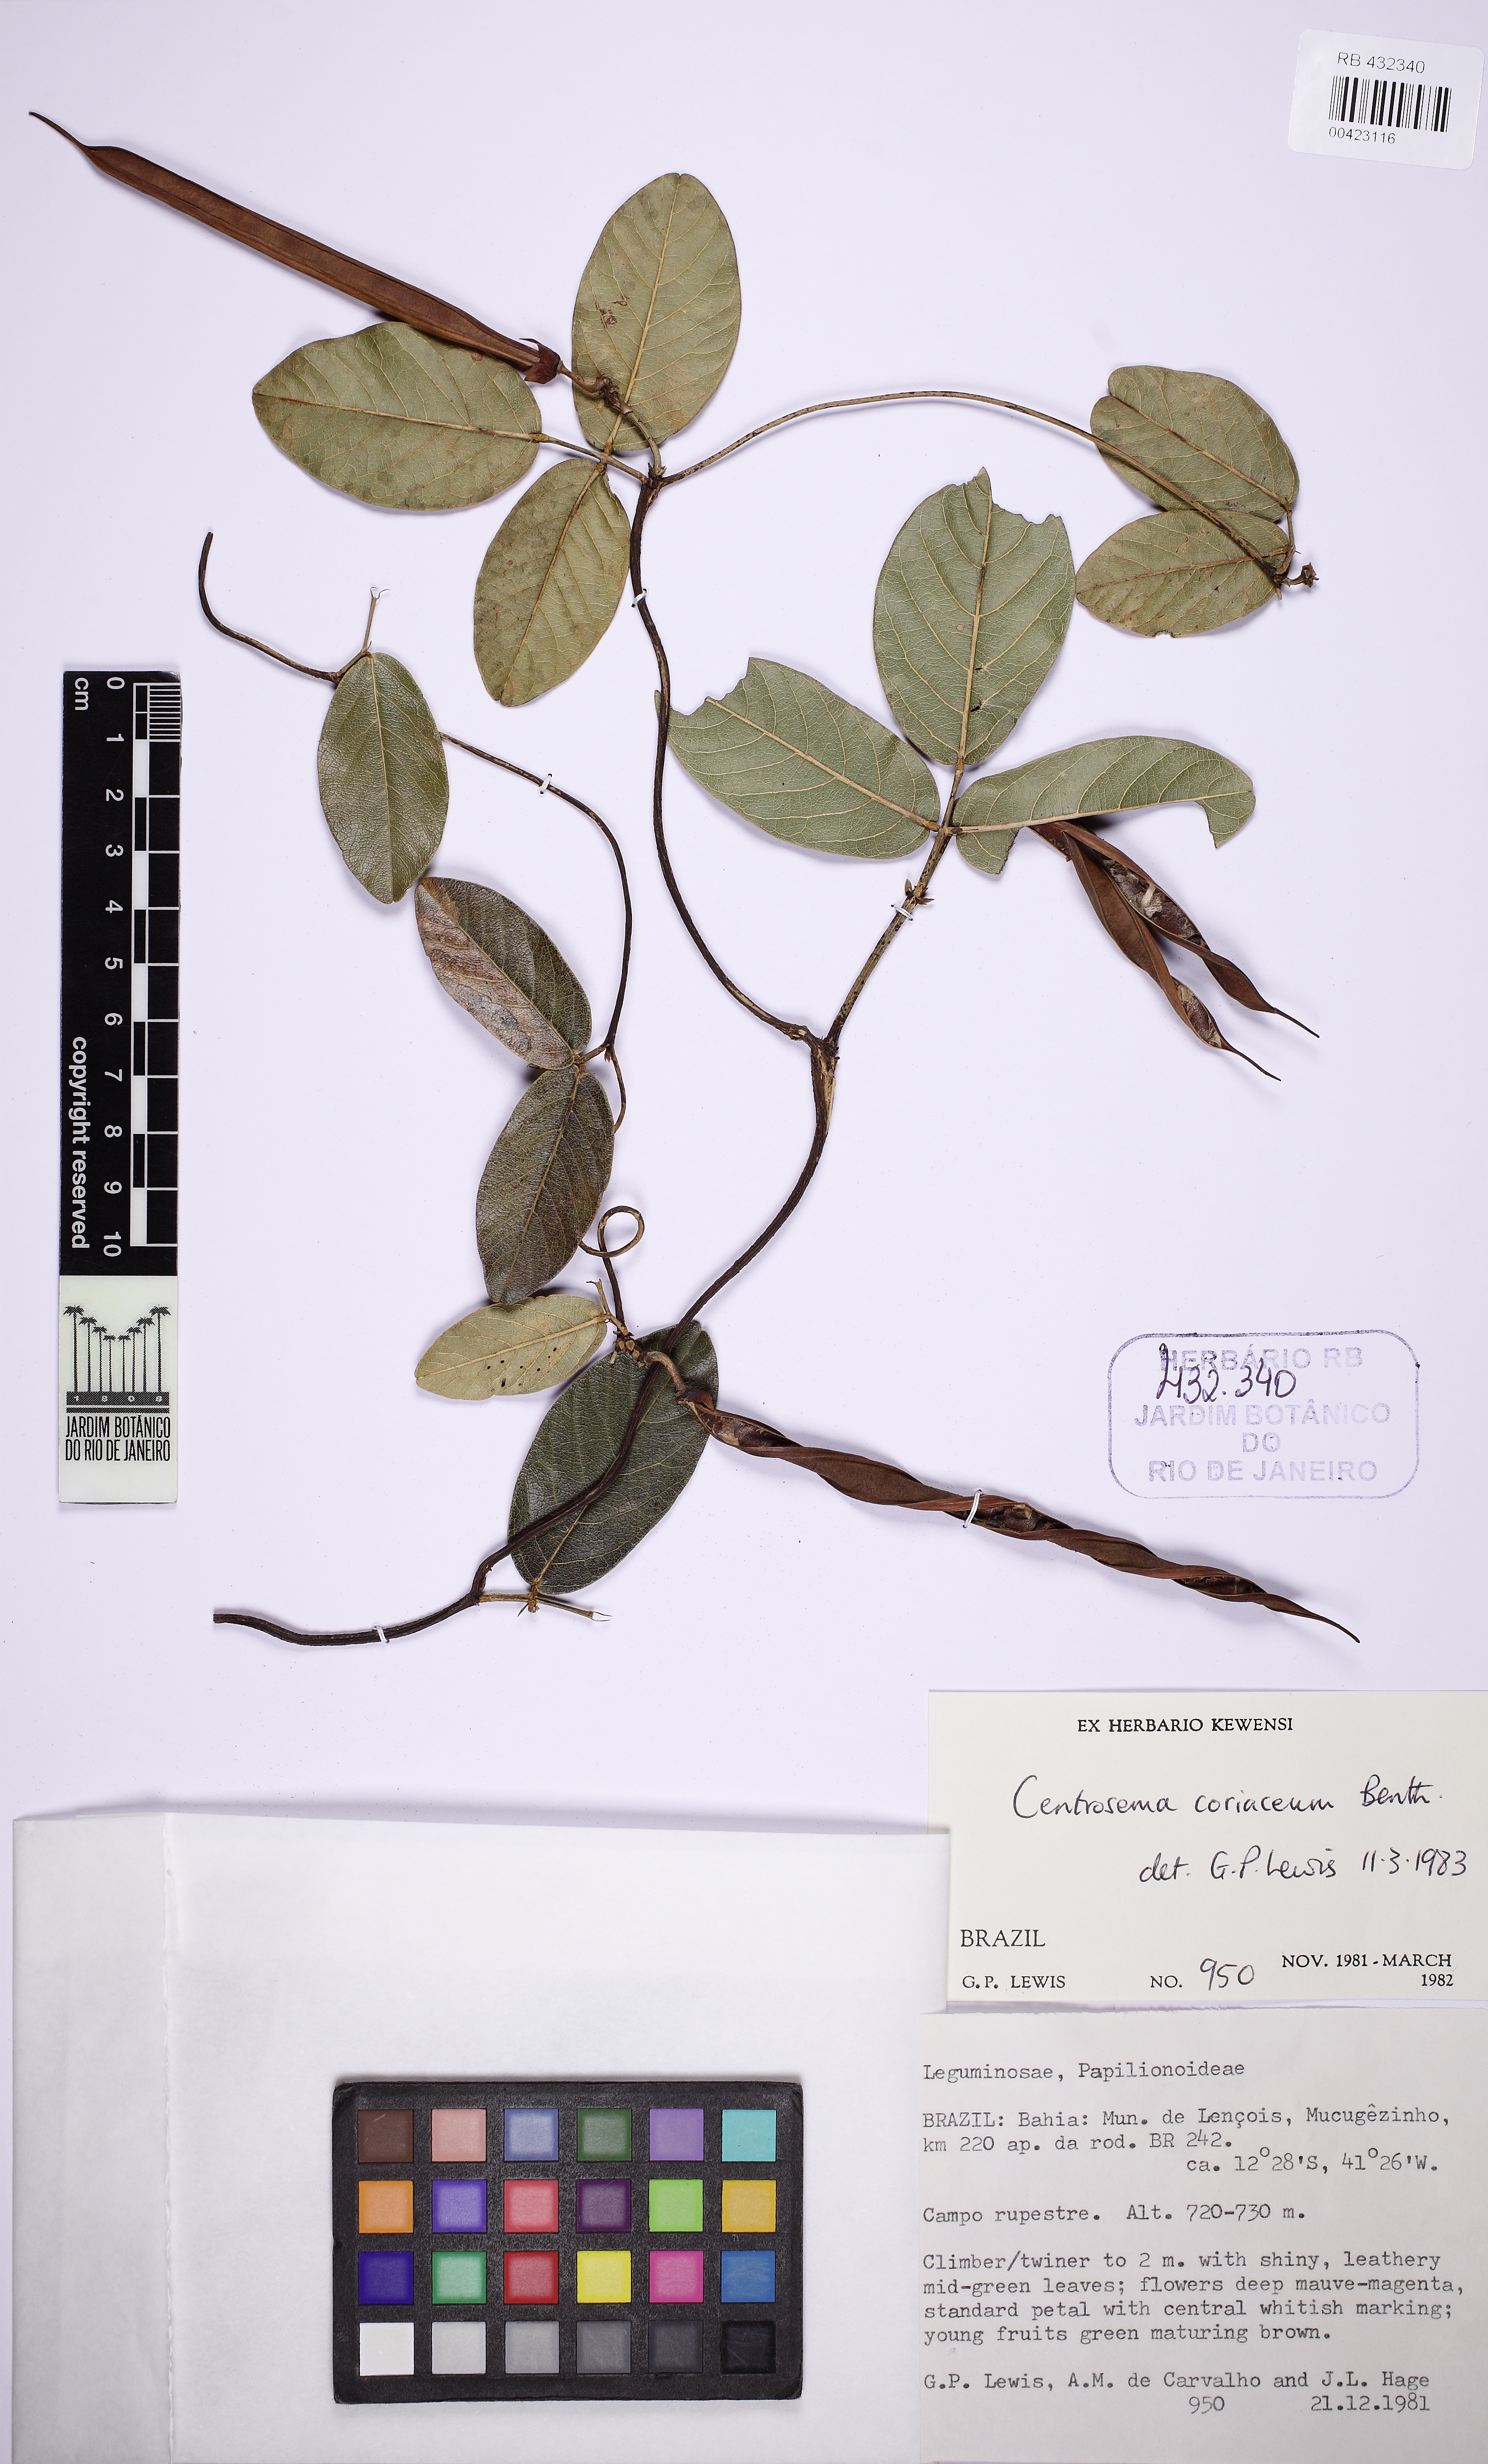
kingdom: Plantae
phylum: Tracheophyta
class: Magnoliopsida
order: Fabales
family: Fabaceae
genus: Centrosema
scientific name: Centrosema coriaceum
